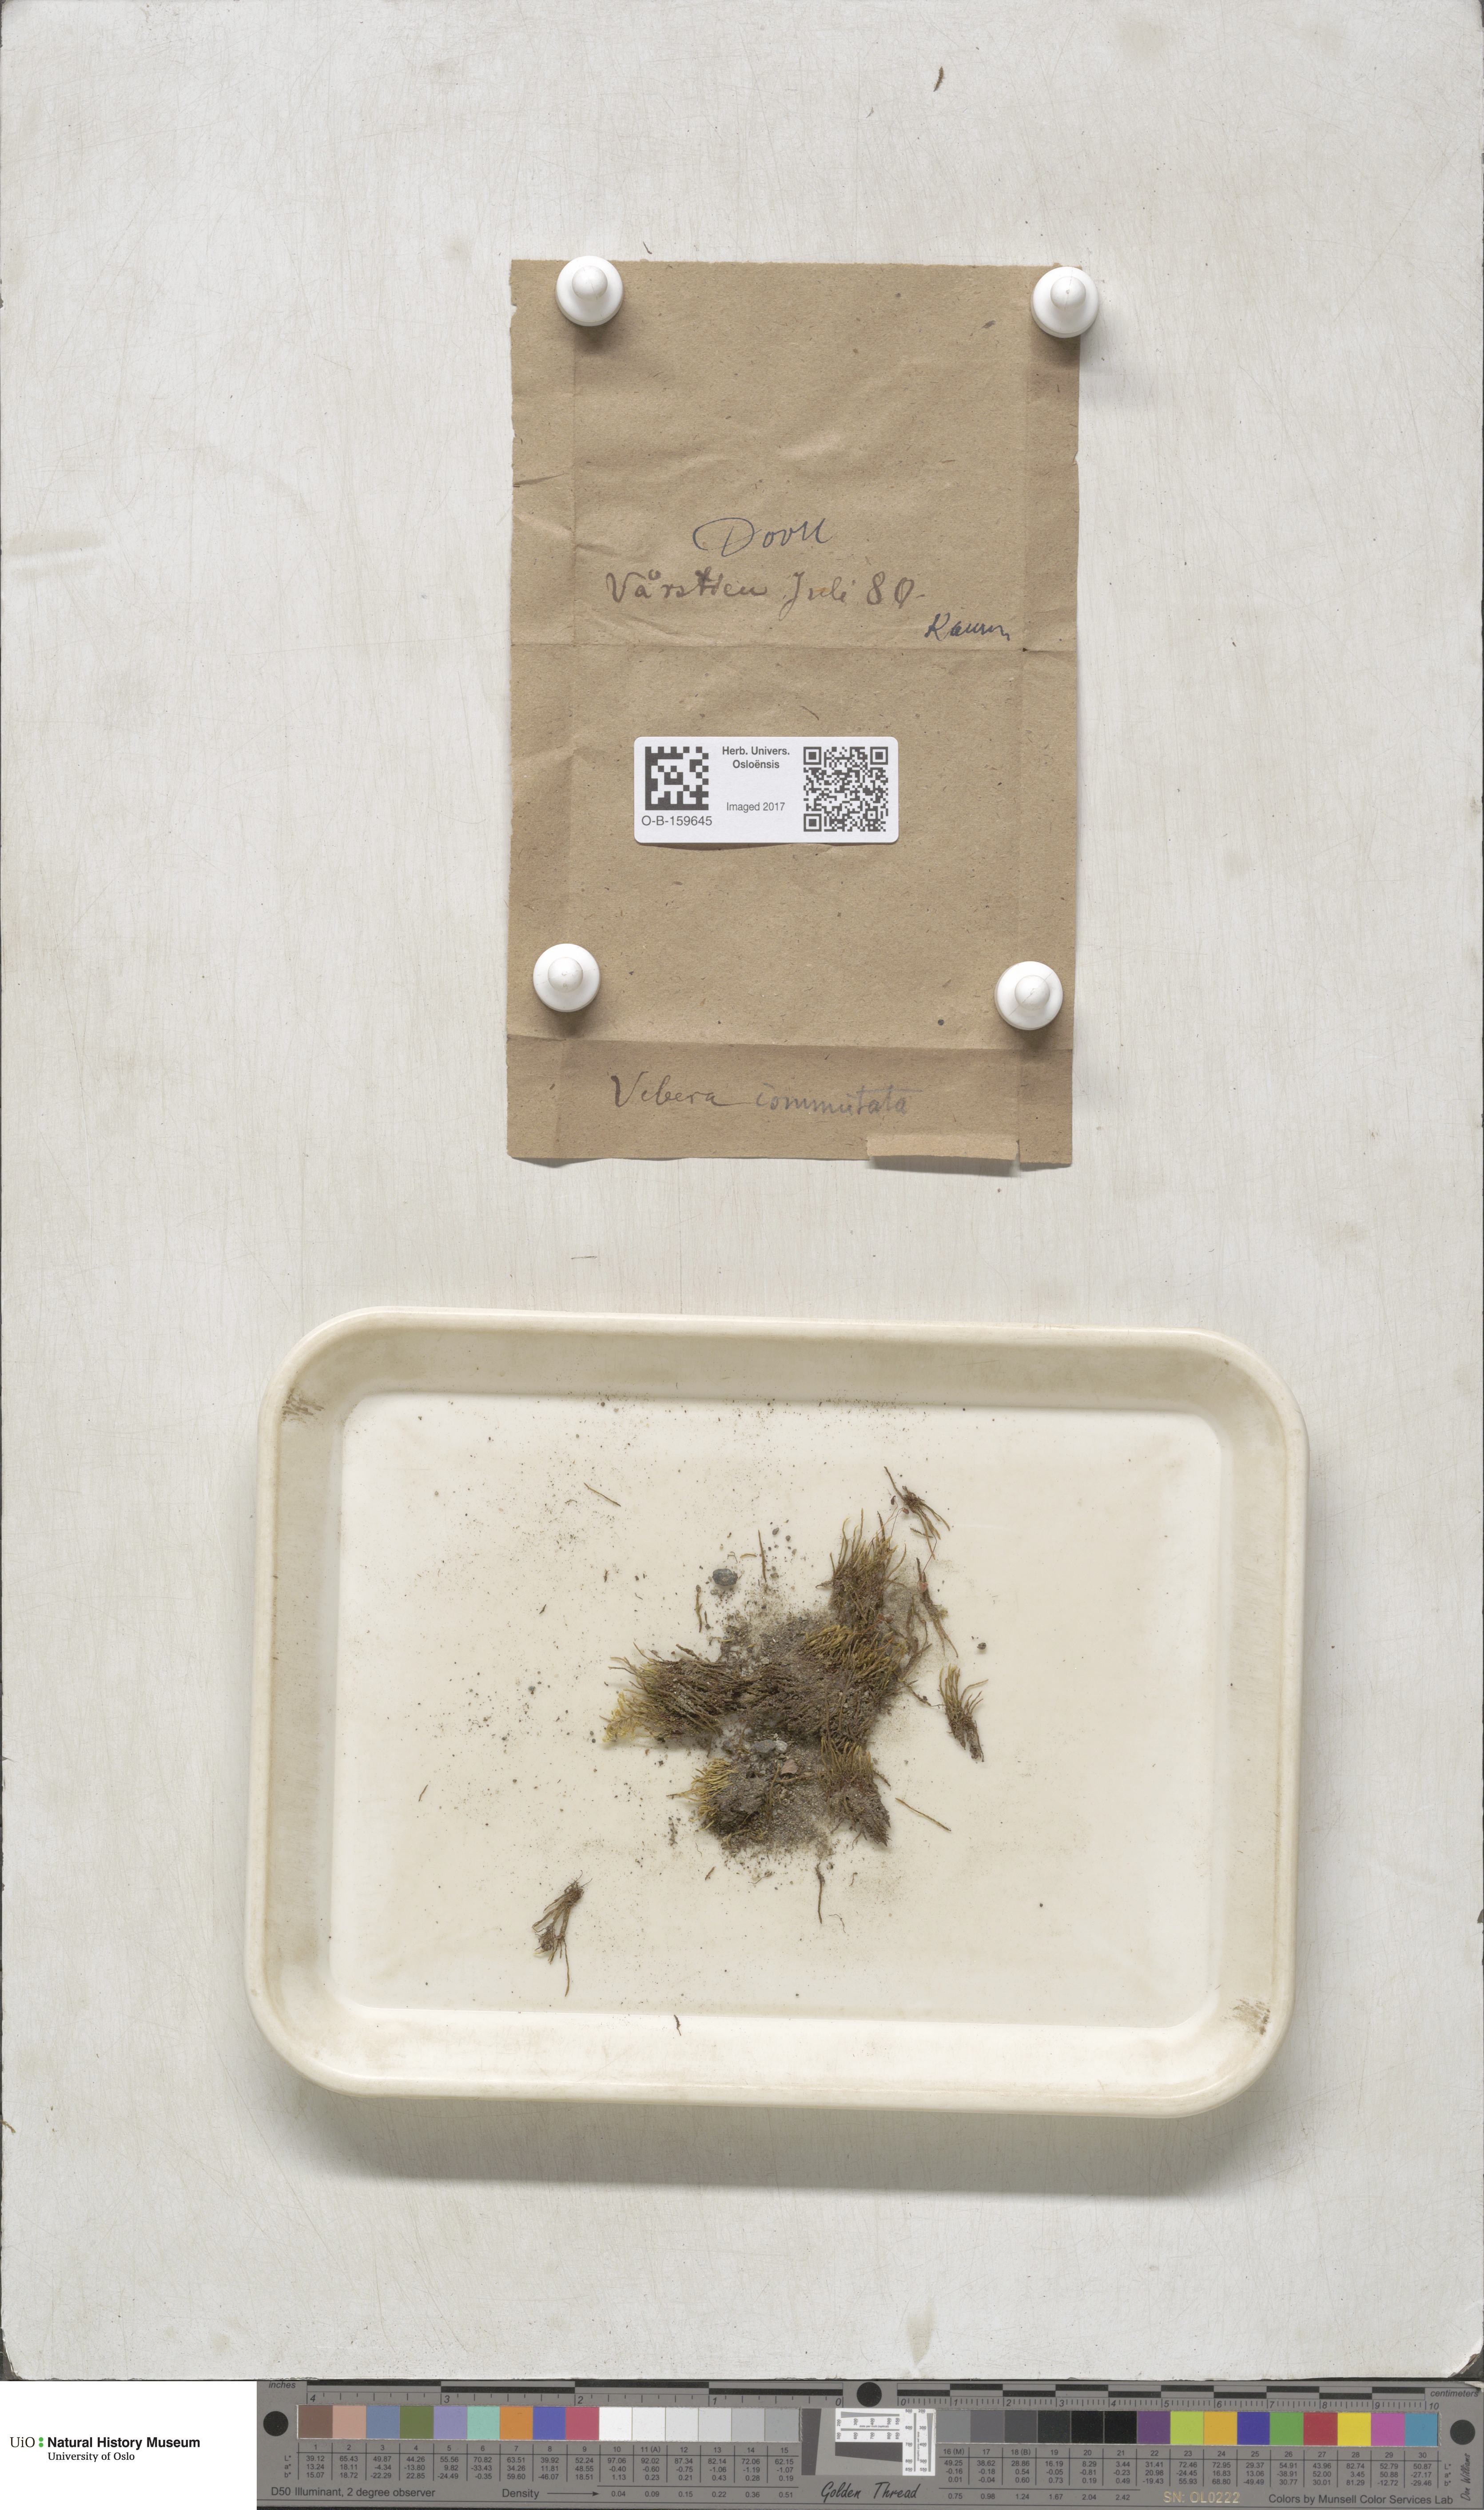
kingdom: Plantae
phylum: Bryophyta
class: Bryopsida
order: Bryales
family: Mniaceae
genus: Pohlia
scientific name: Pohlia drummondii
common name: Drummond's nodding moss
